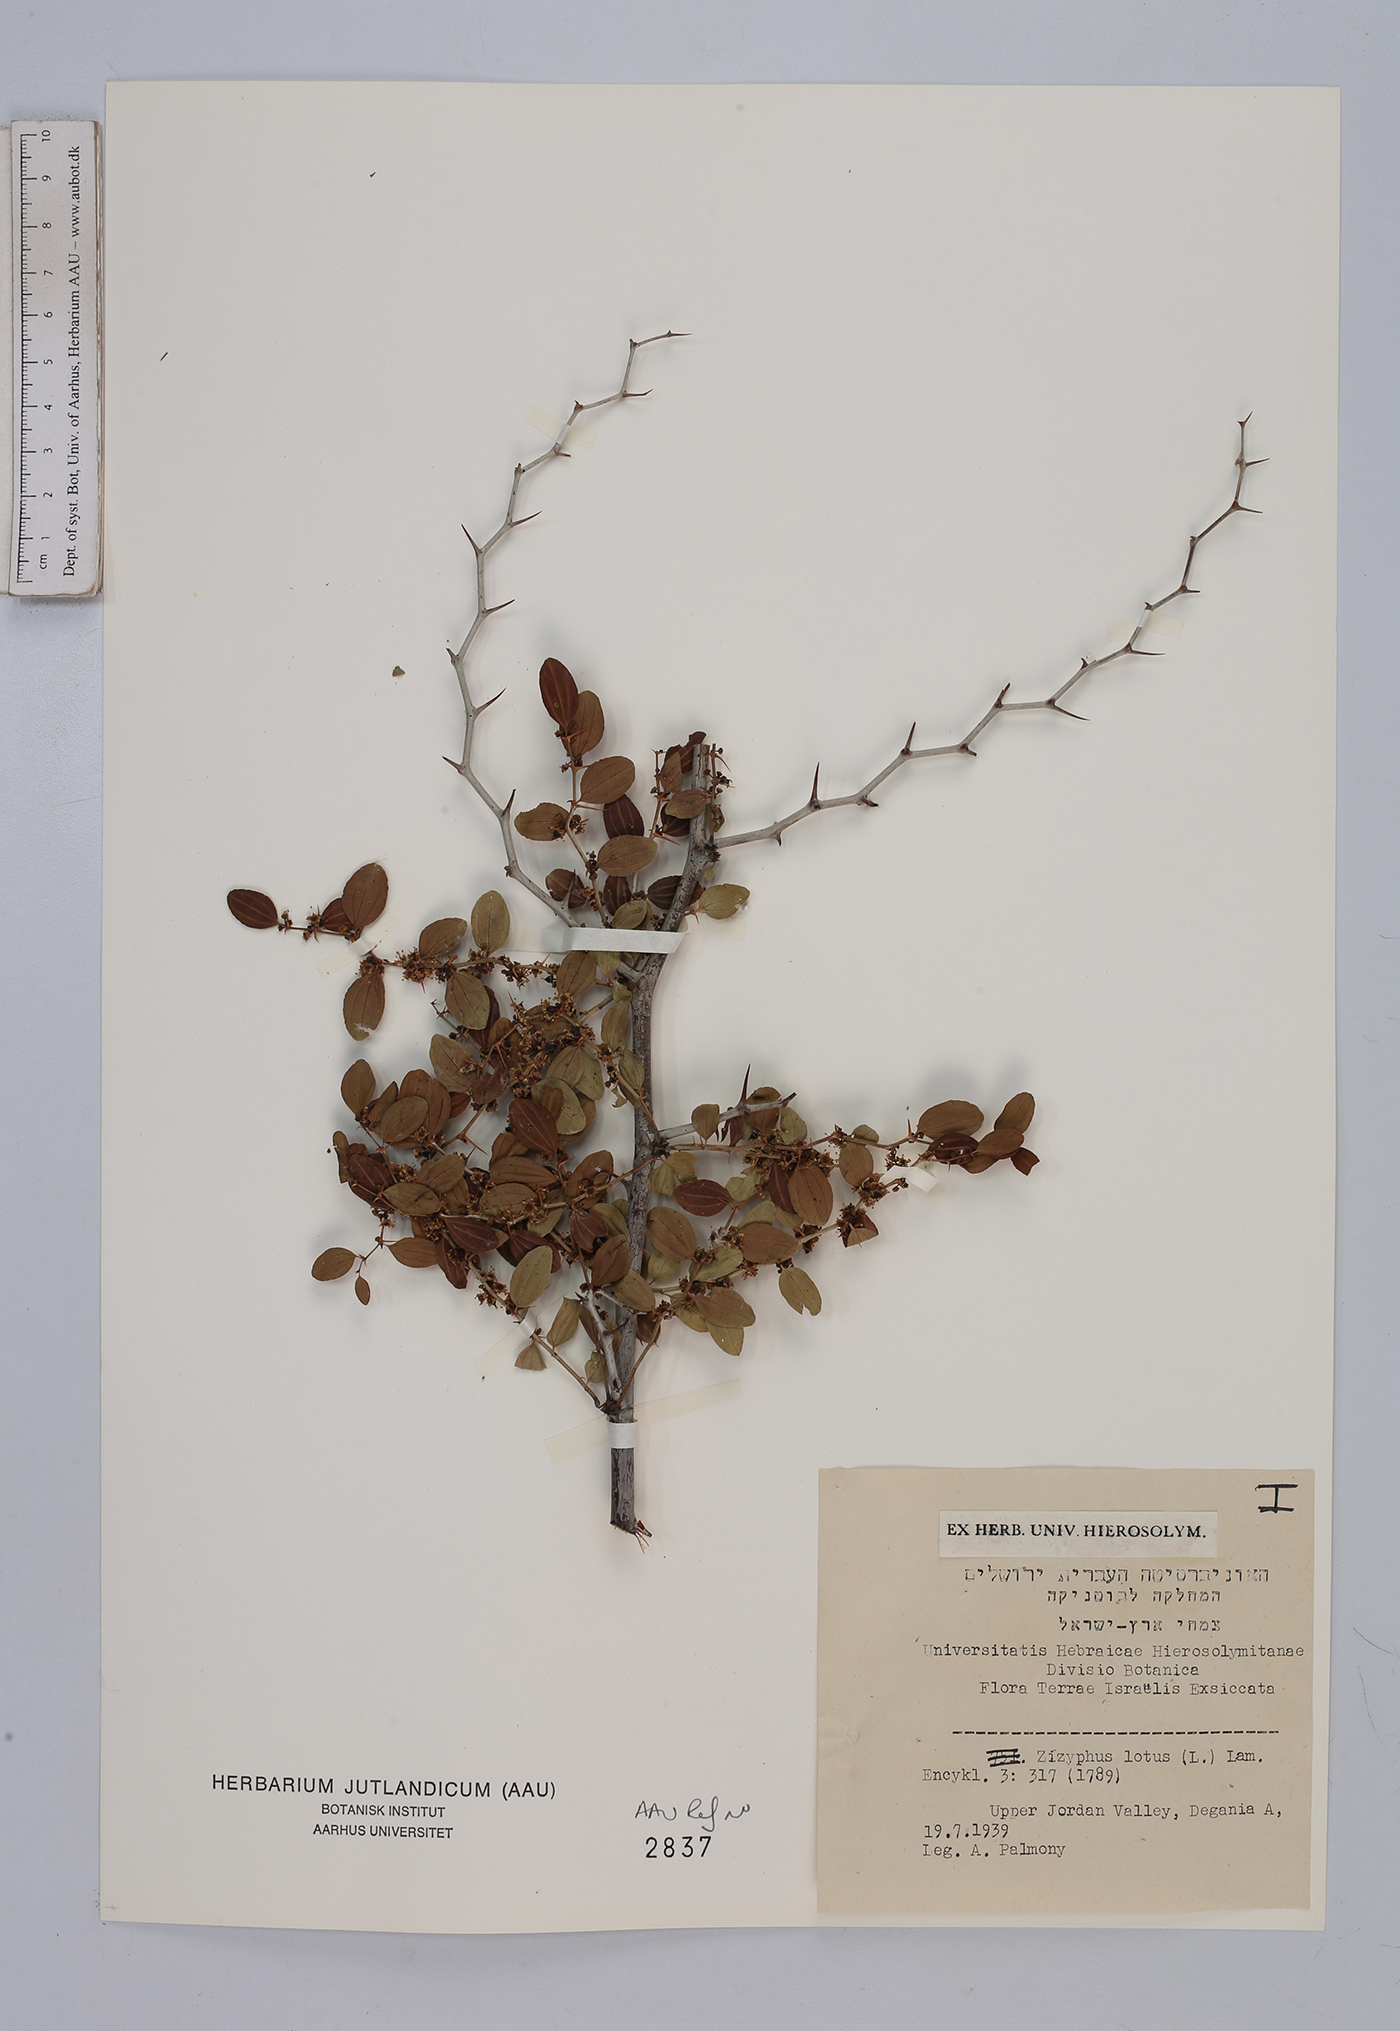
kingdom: Plantae
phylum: Tracheophyta
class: Magnoliopsida
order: Rosales
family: Rhamnaceae
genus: Ziziphus
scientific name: Ziziphus lotus
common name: Lotus
